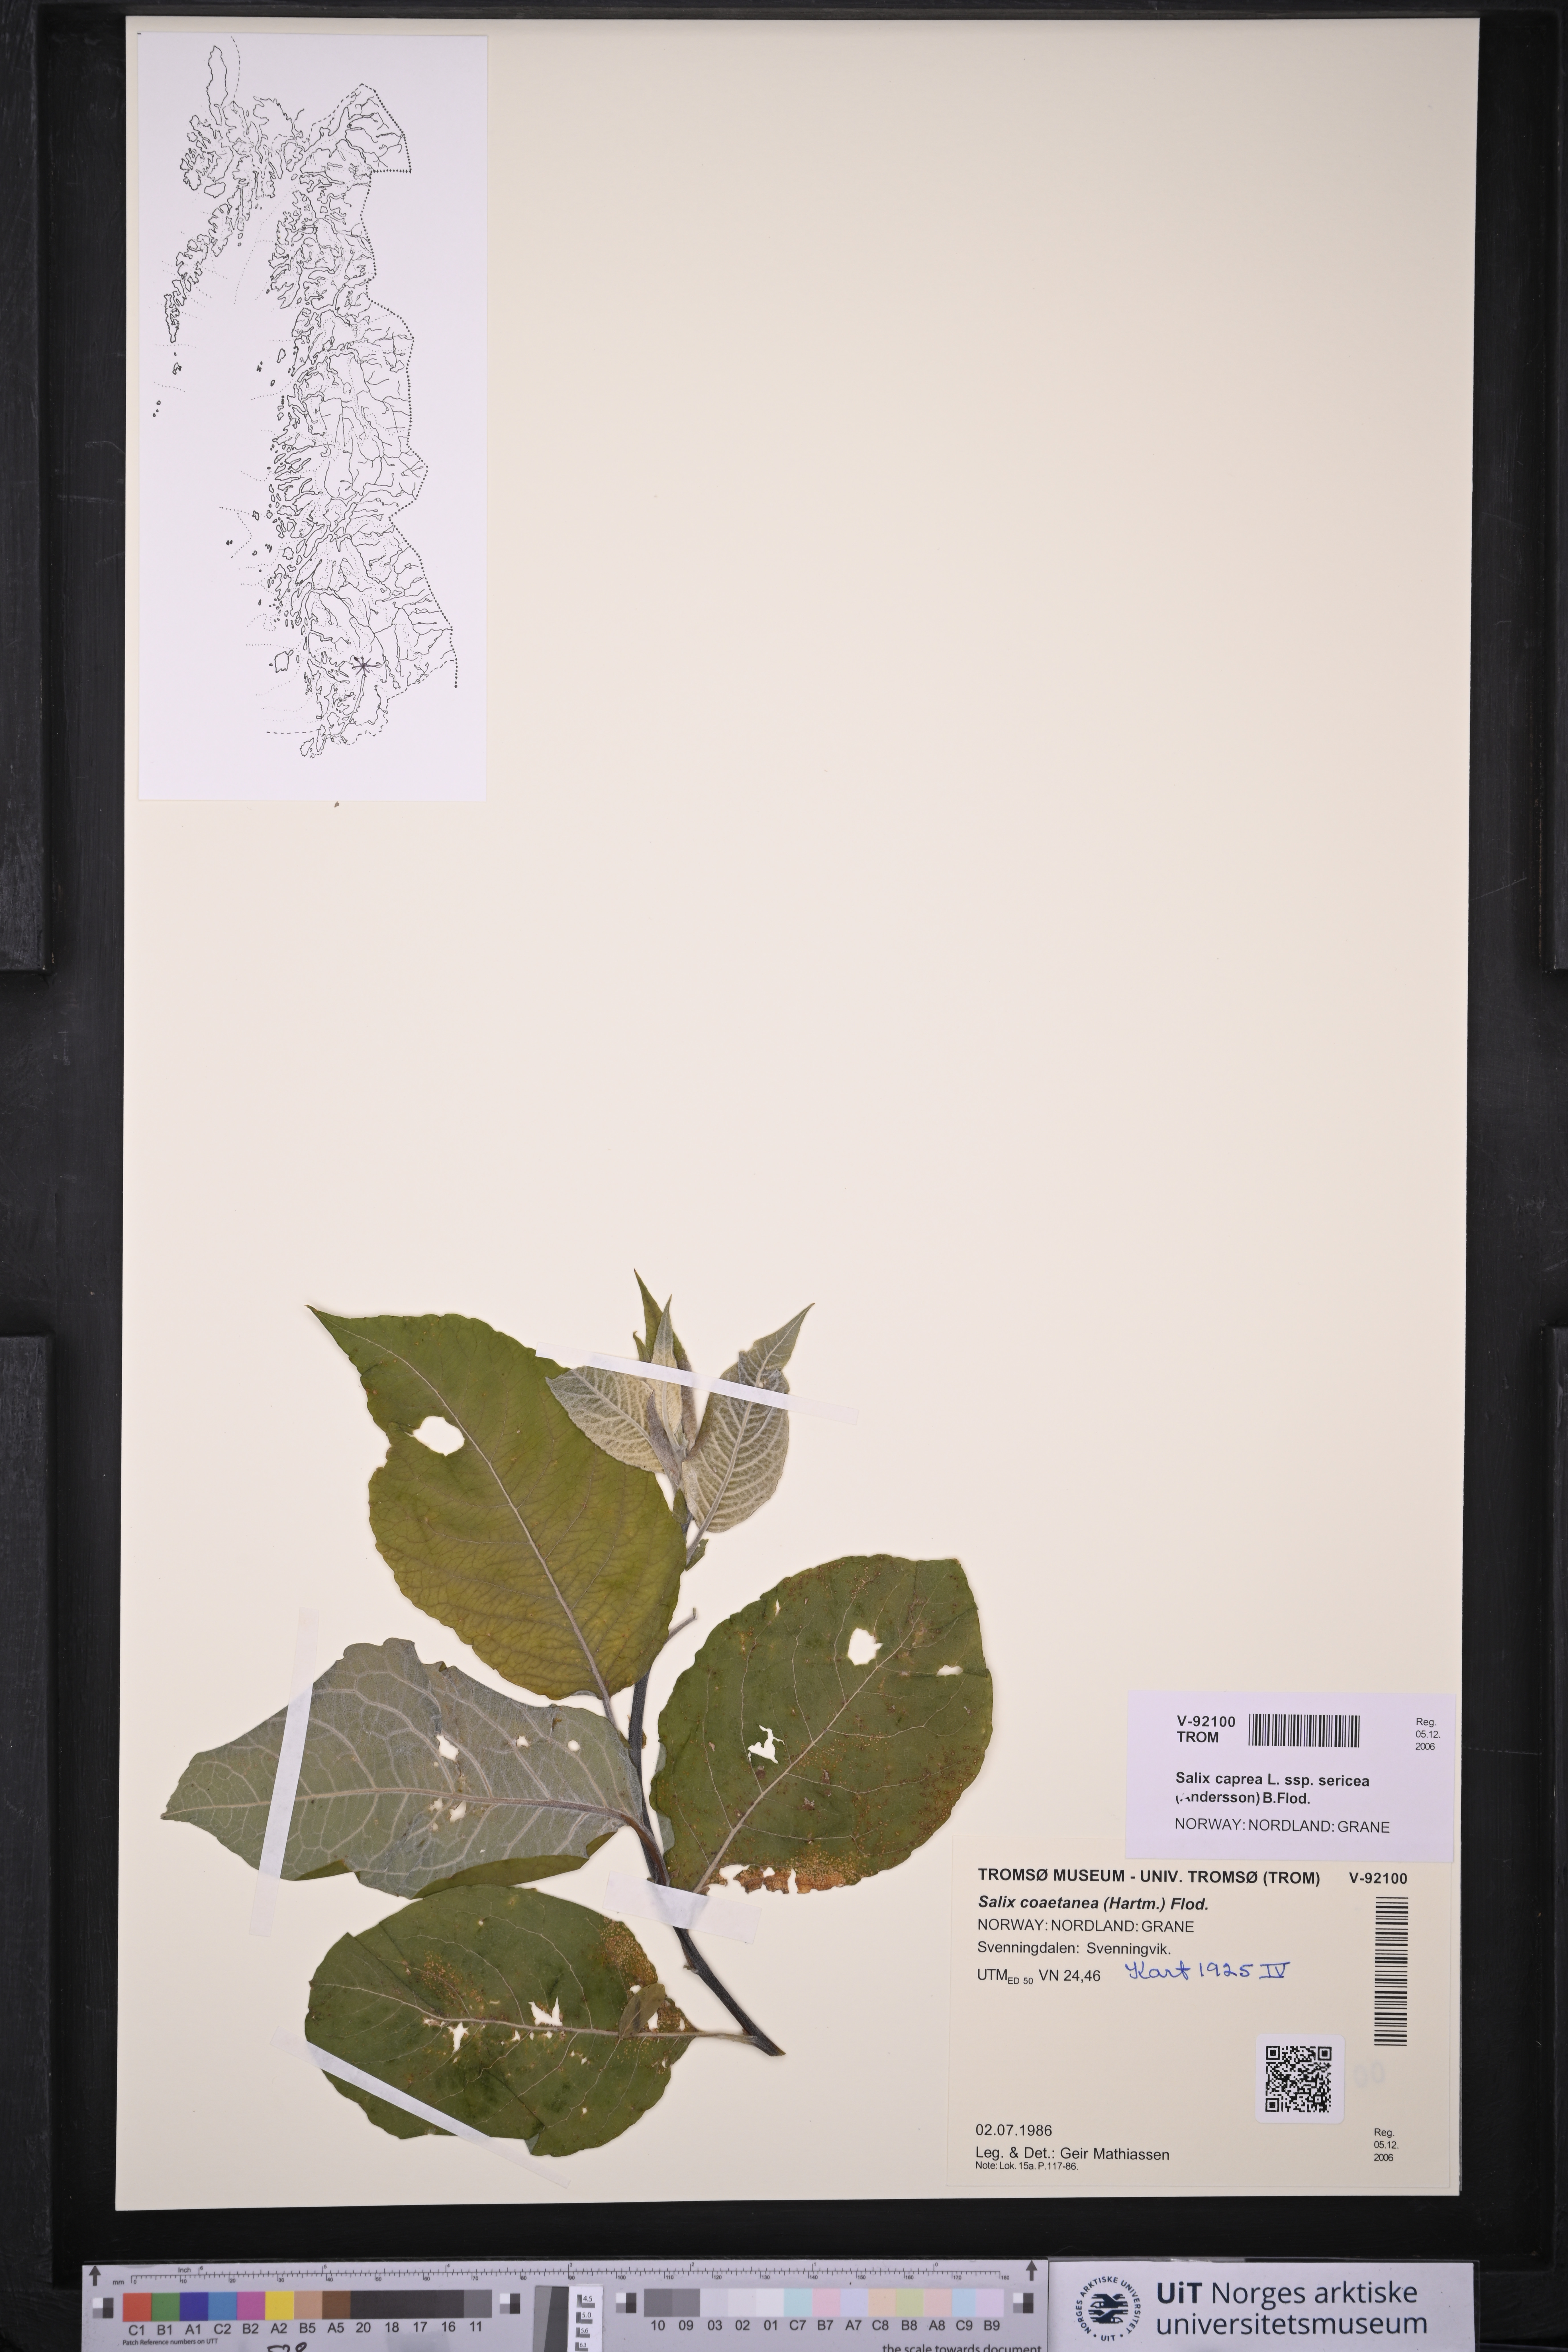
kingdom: Plantae
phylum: Tracheophyta
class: Magnoliopsida
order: Malpighiales
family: Salicaceae
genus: Salix
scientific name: Salix caprea
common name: Goat willow
